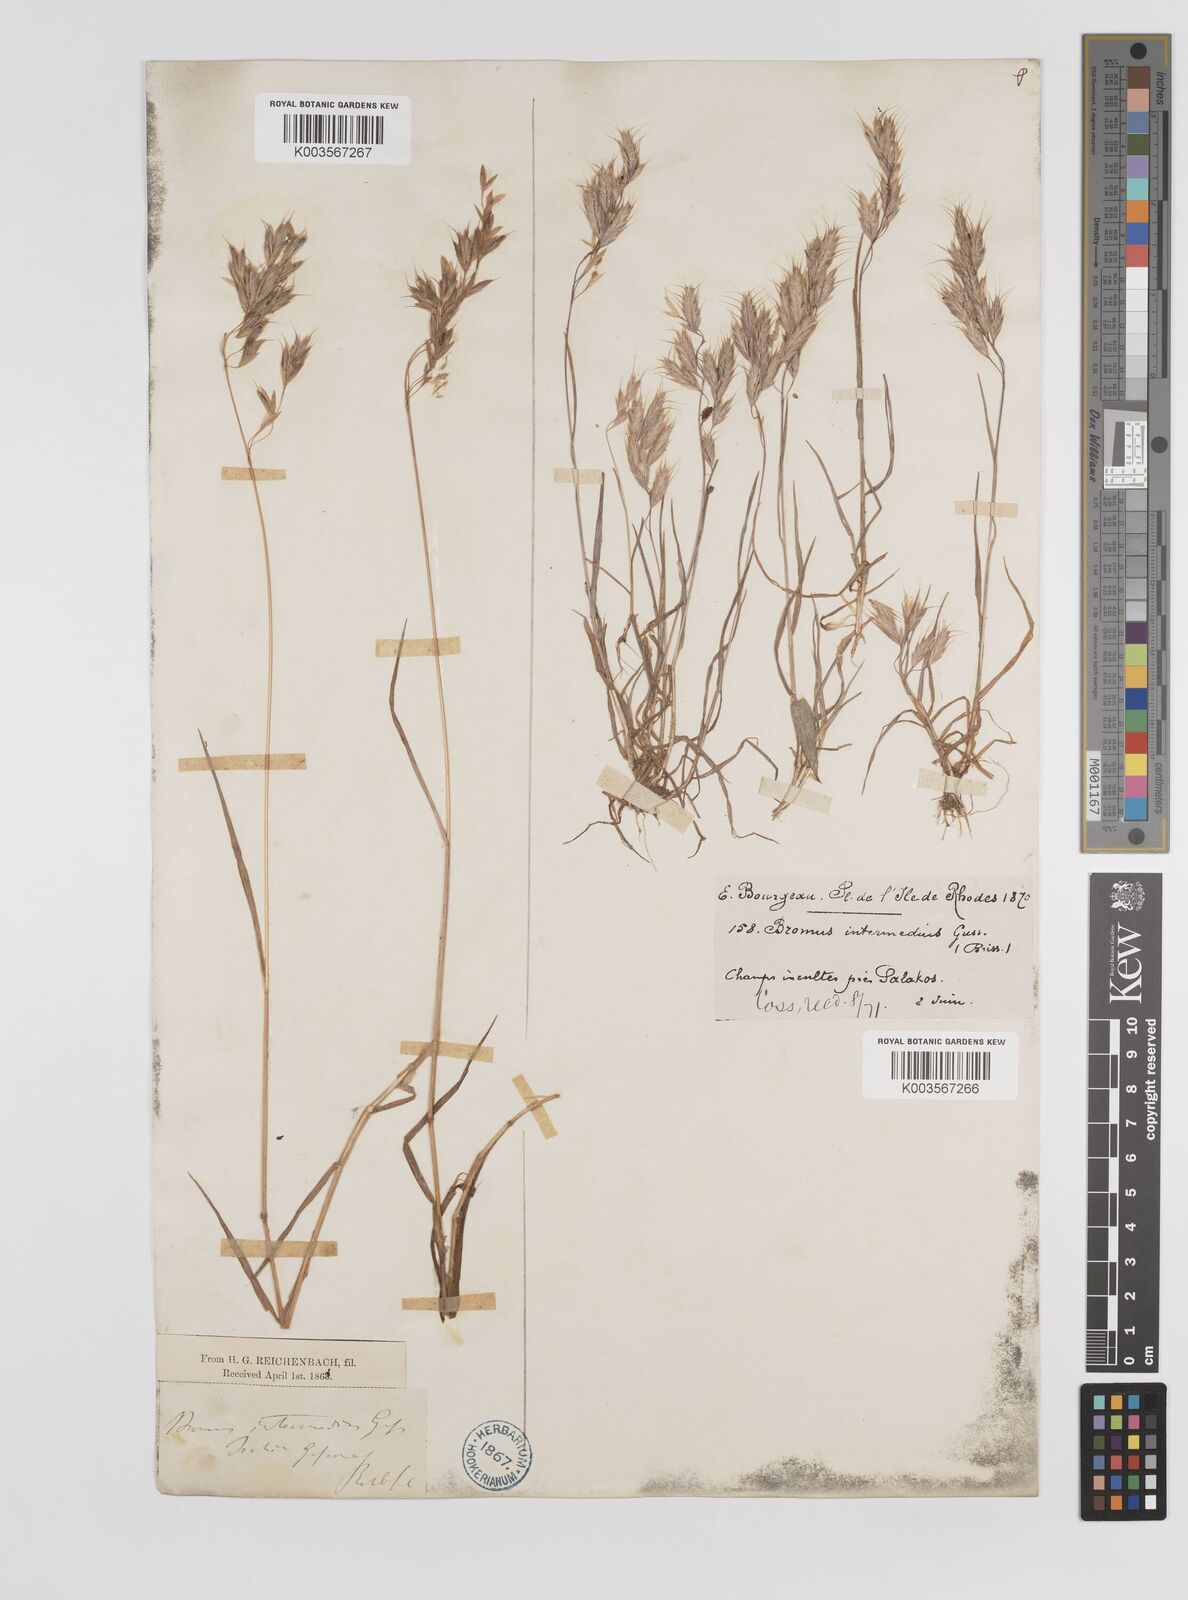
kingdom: Plantae
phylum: Tracheophyta
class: Liliopsida
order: Poales
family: Poaceae
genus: Bromus
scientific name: Bromus intermedius
